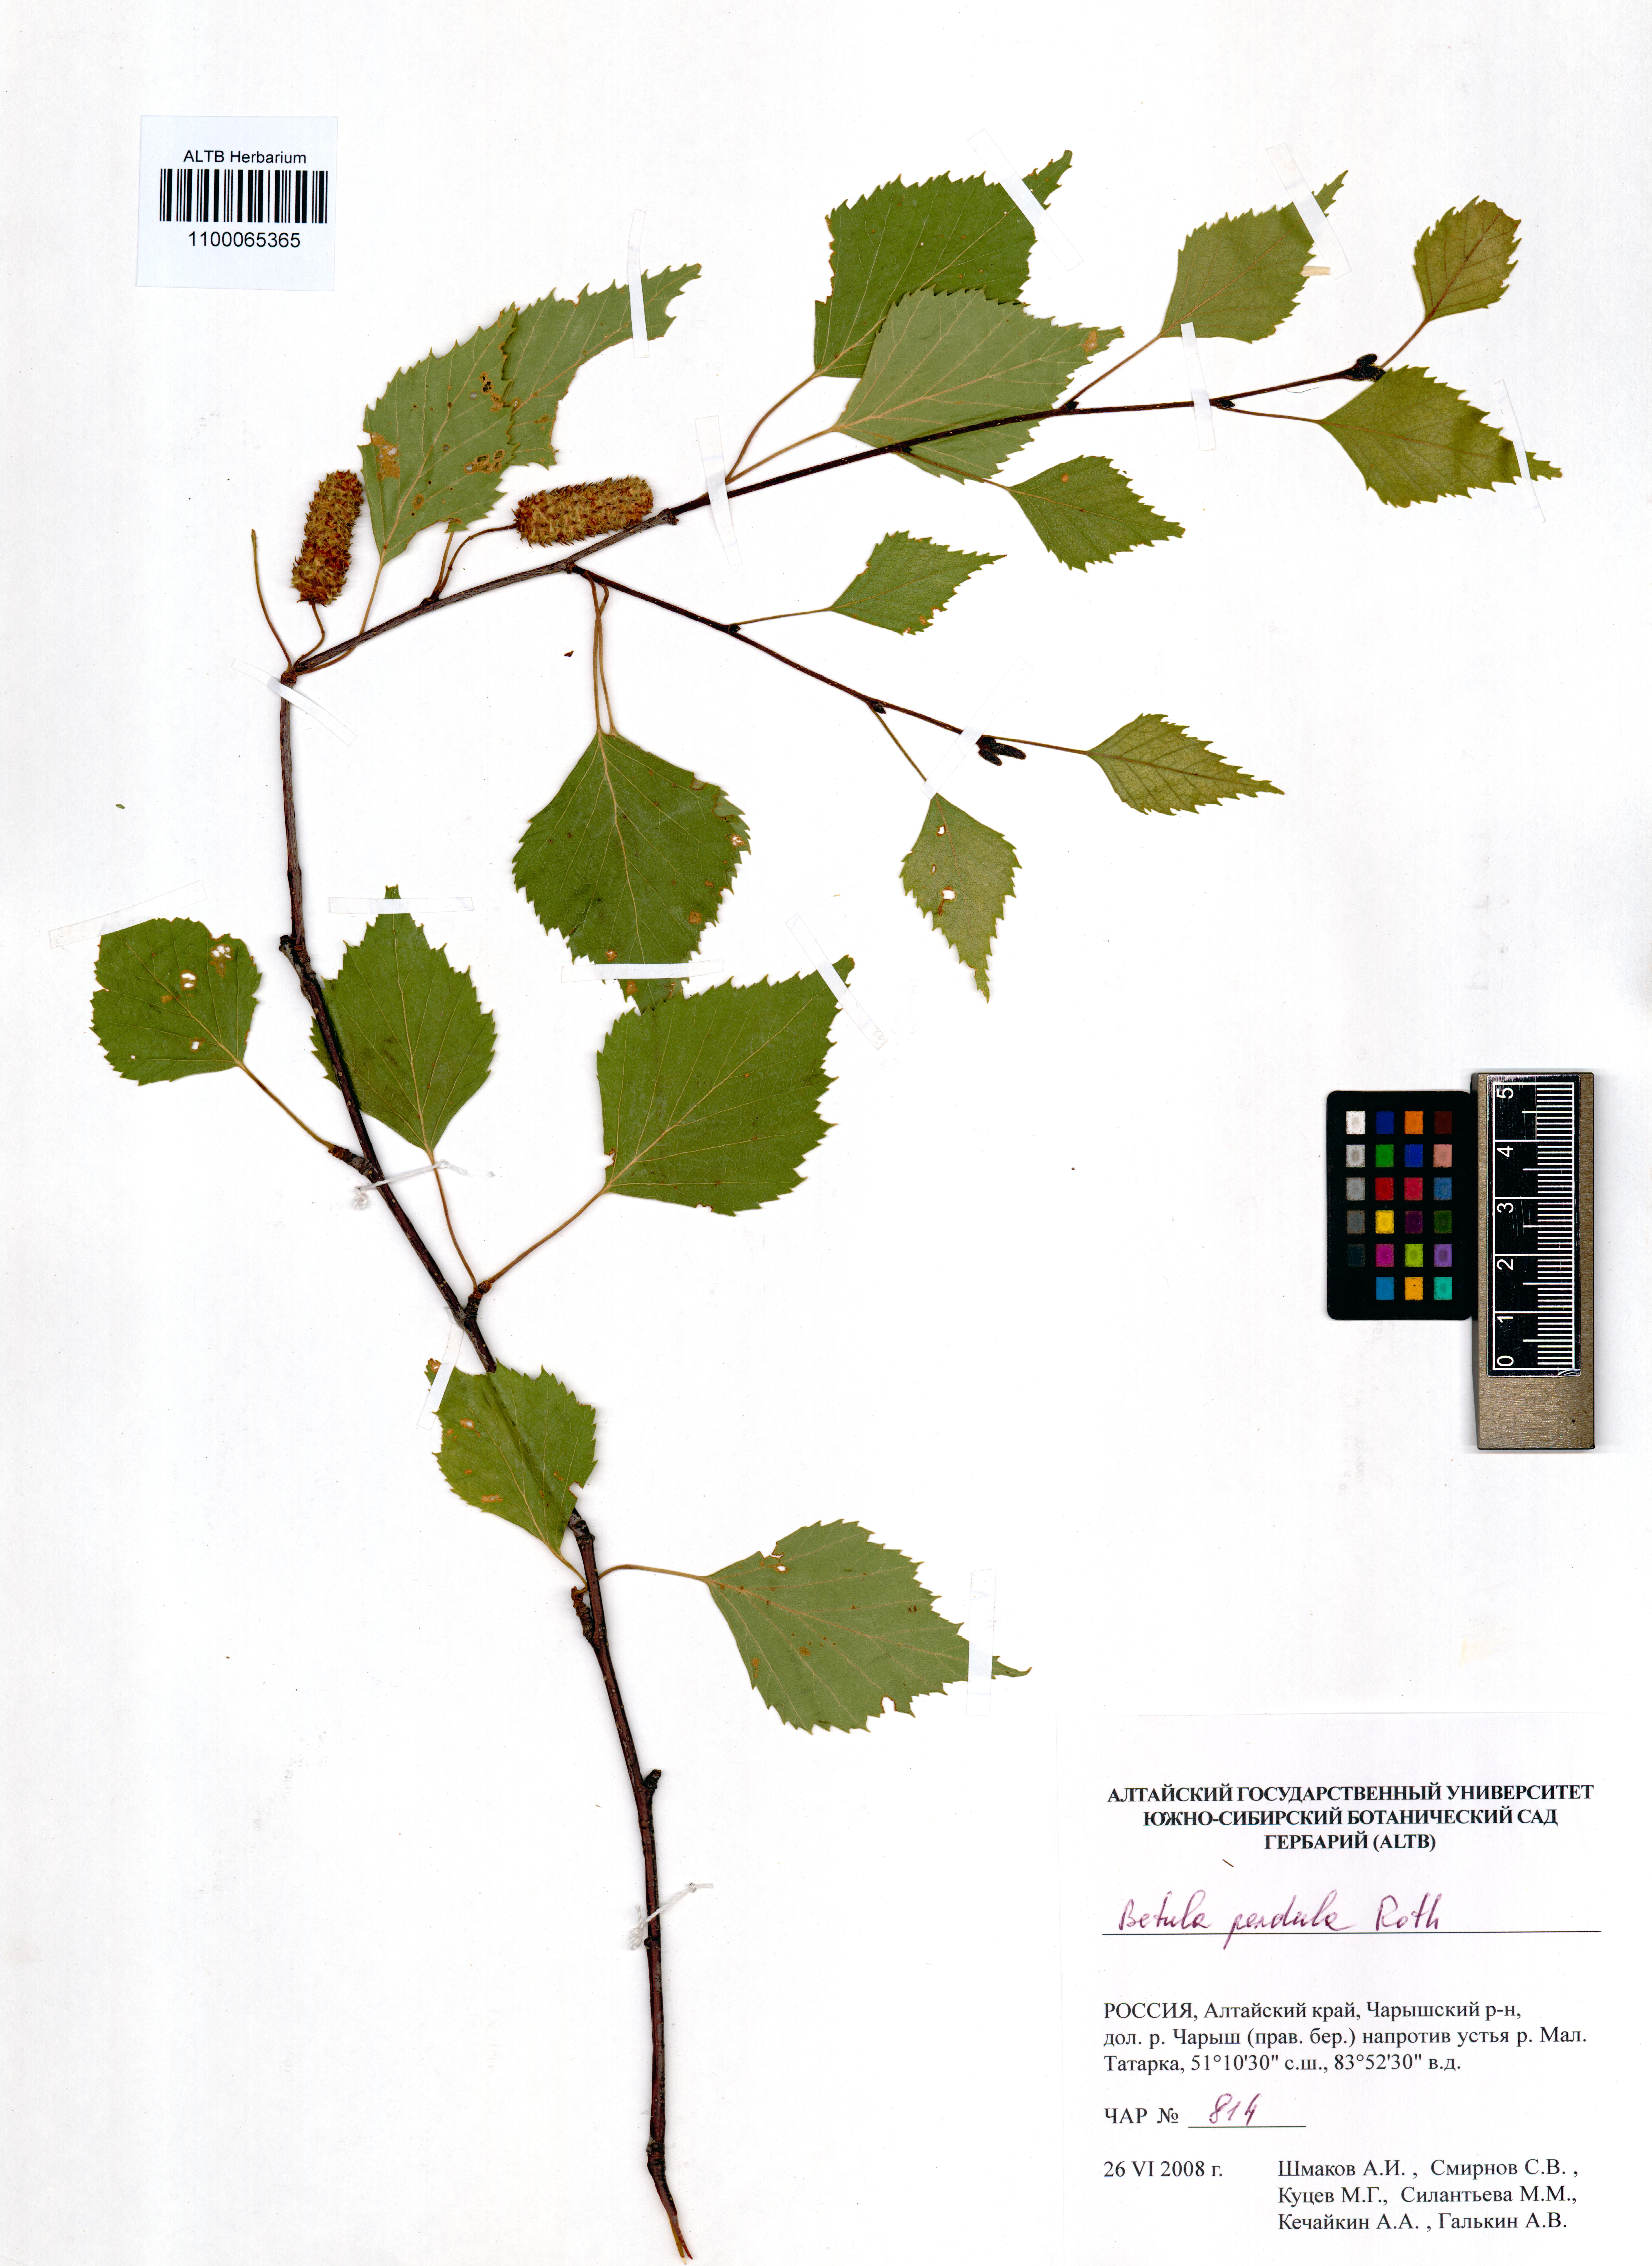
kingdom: Plantae
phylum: Tracheophyta
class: Magnoliopsida
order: Fagales
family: Betulaceae
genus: Betula
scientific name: Betula pendula
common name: Silver birch
